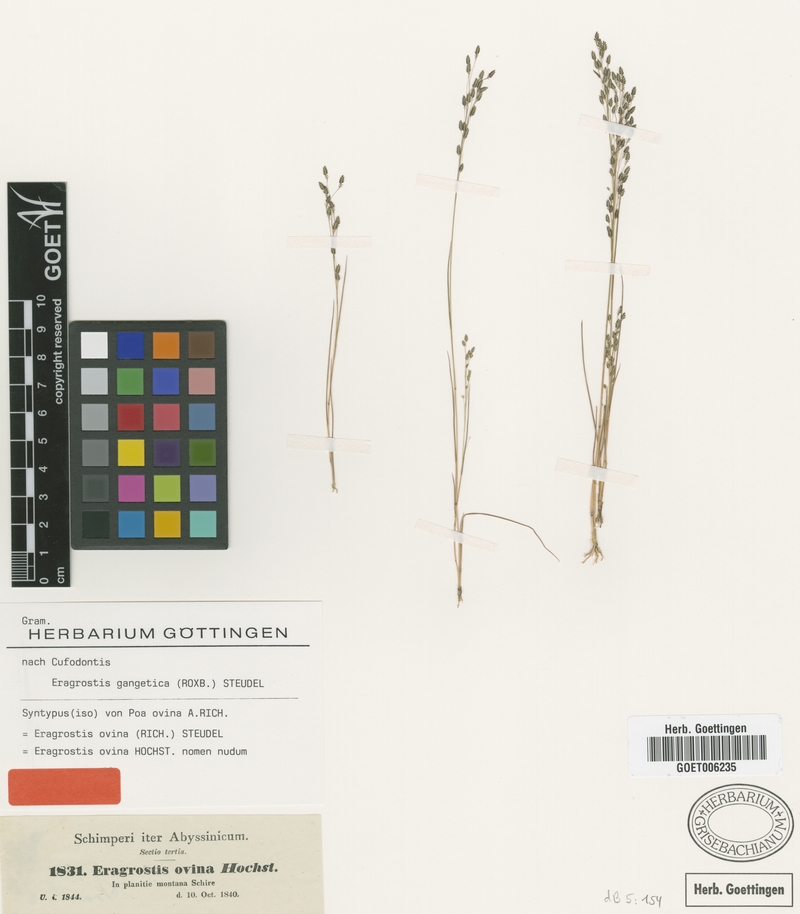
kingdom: Plantae
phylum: Tracheophyta
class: Liliopsida
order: Poales
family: Poaceae
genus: Eragrostis
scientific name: Eragrostis gangetica
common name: Slimflower lovegrass
